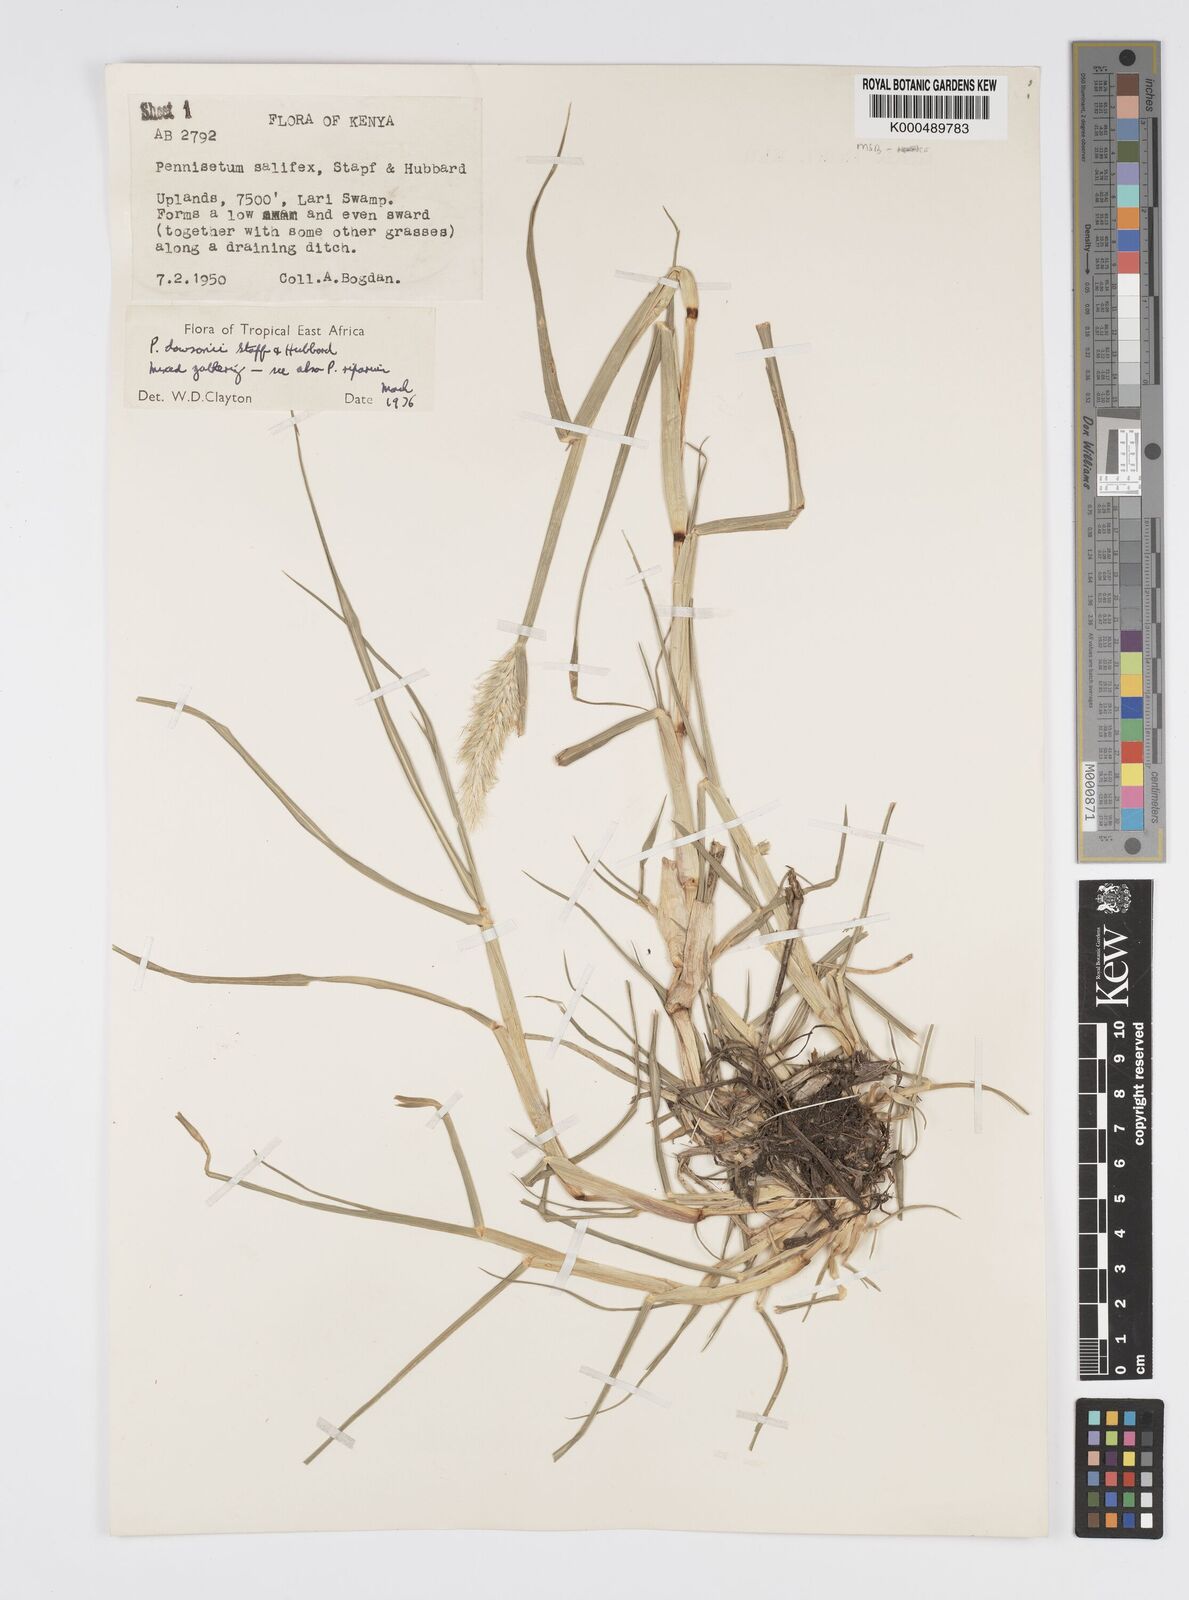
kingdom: Plantae
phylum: Tracheophyta
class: Liliopsida
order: Poales
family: Poaceae
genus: Cenchrus
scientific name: Cenchrus riparius
